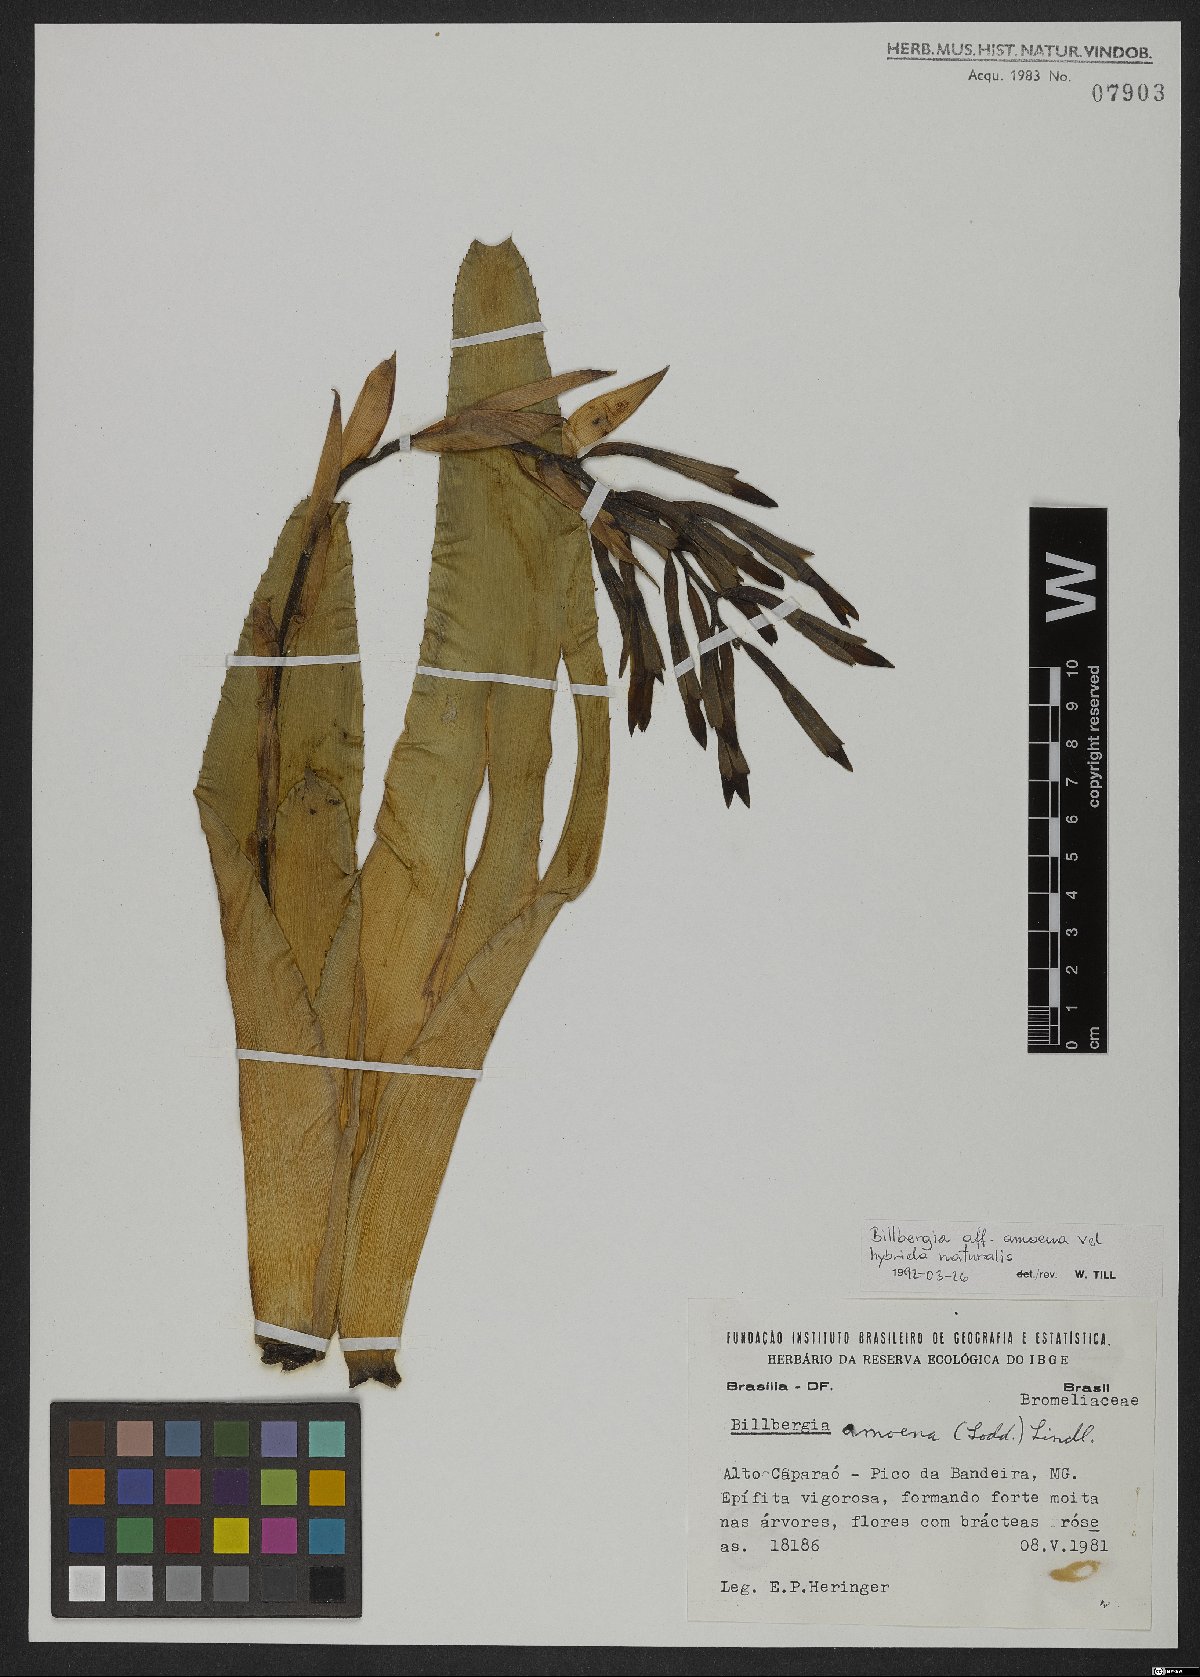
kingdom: Plantae
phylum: Tracheophyta
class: Liliopsida
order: Poales
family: Bromeliaceae
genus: Billbergia
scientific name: Billbergia amoena
